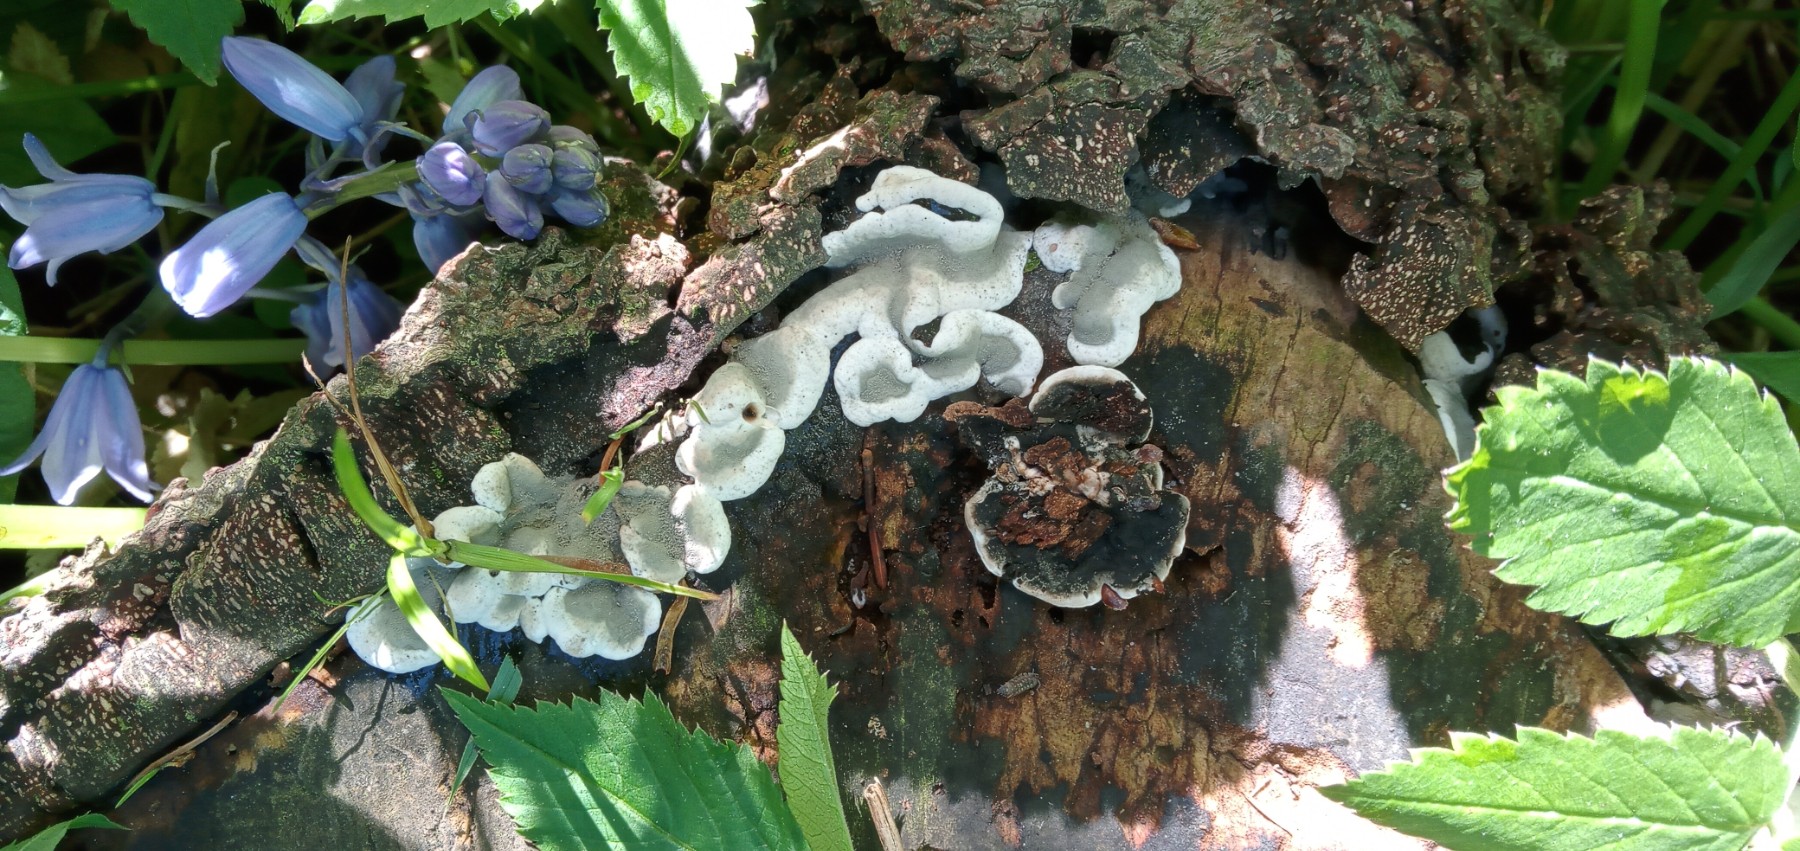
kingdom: Fungi
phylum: Ascomycota
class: Sordariomycetes
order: Xylariales
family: Xylariaceae
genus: Kretzschmaria
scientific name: Kretzschmaria deusta
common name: stor kulsvamp
